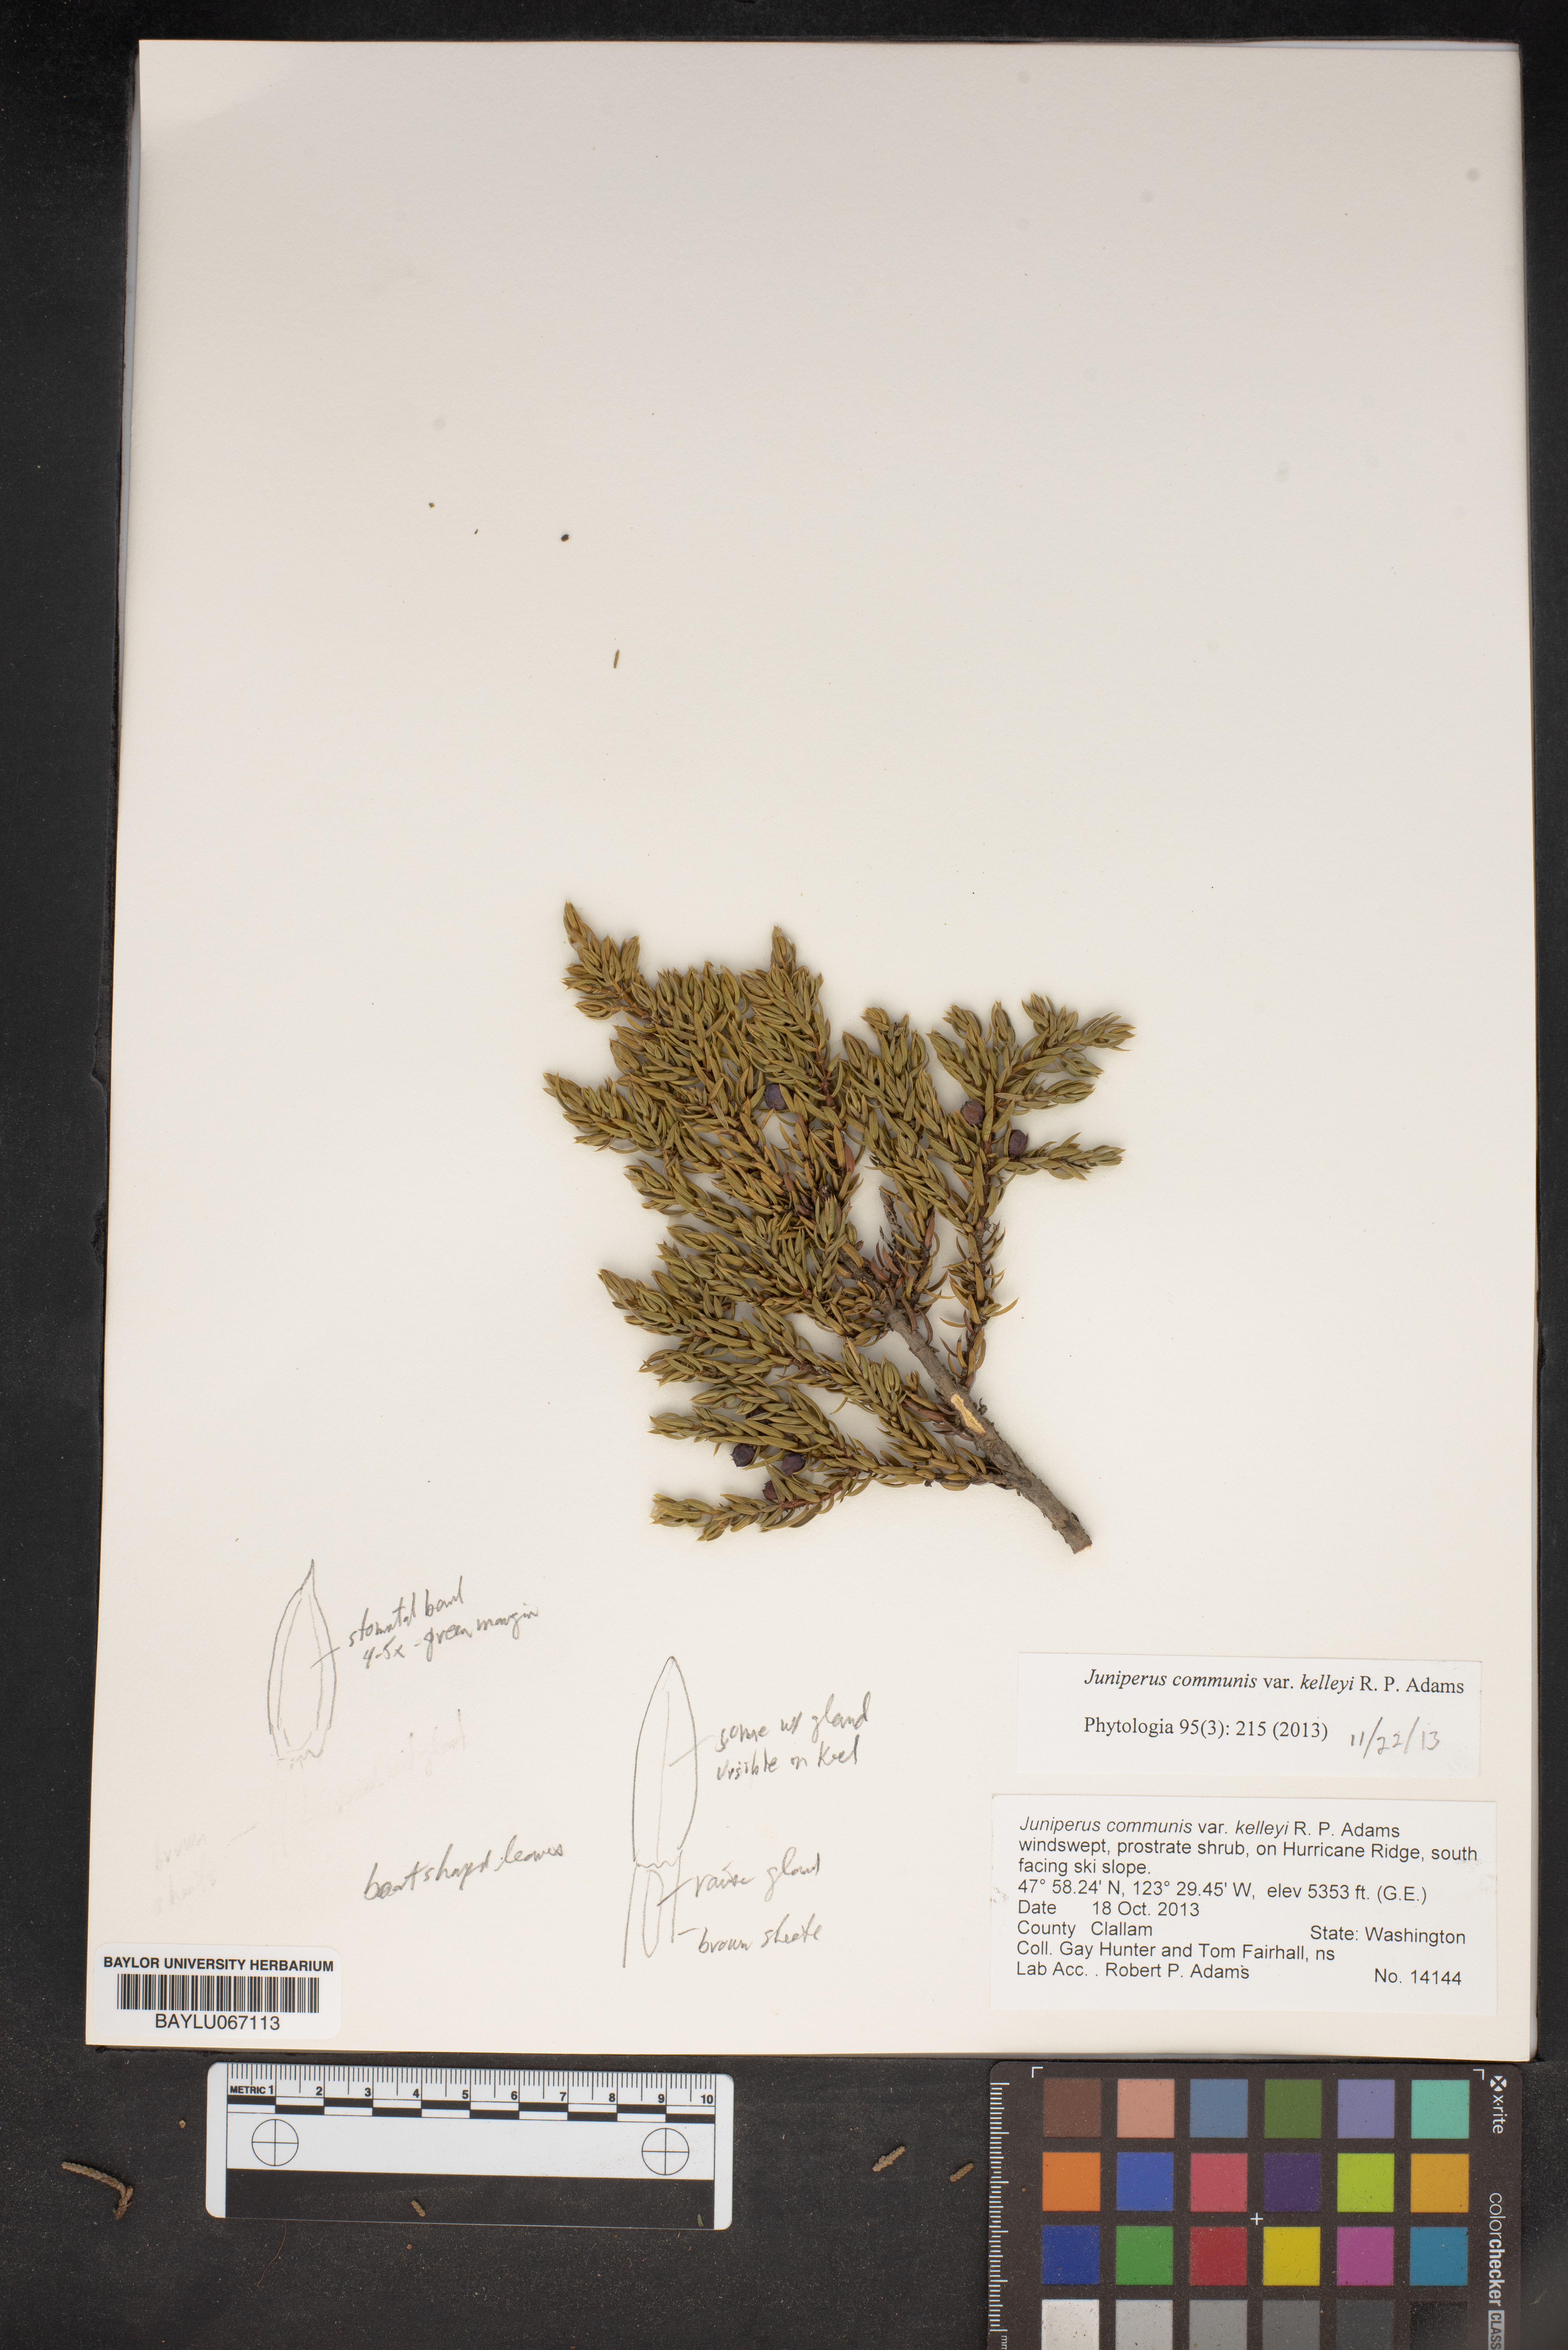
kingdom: Plantae
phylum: Tracheophyta
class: Pinopsida
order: Pinales
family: Cupressaceae
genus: Juniperus
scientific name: Juniperus communis
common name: Common juniper
